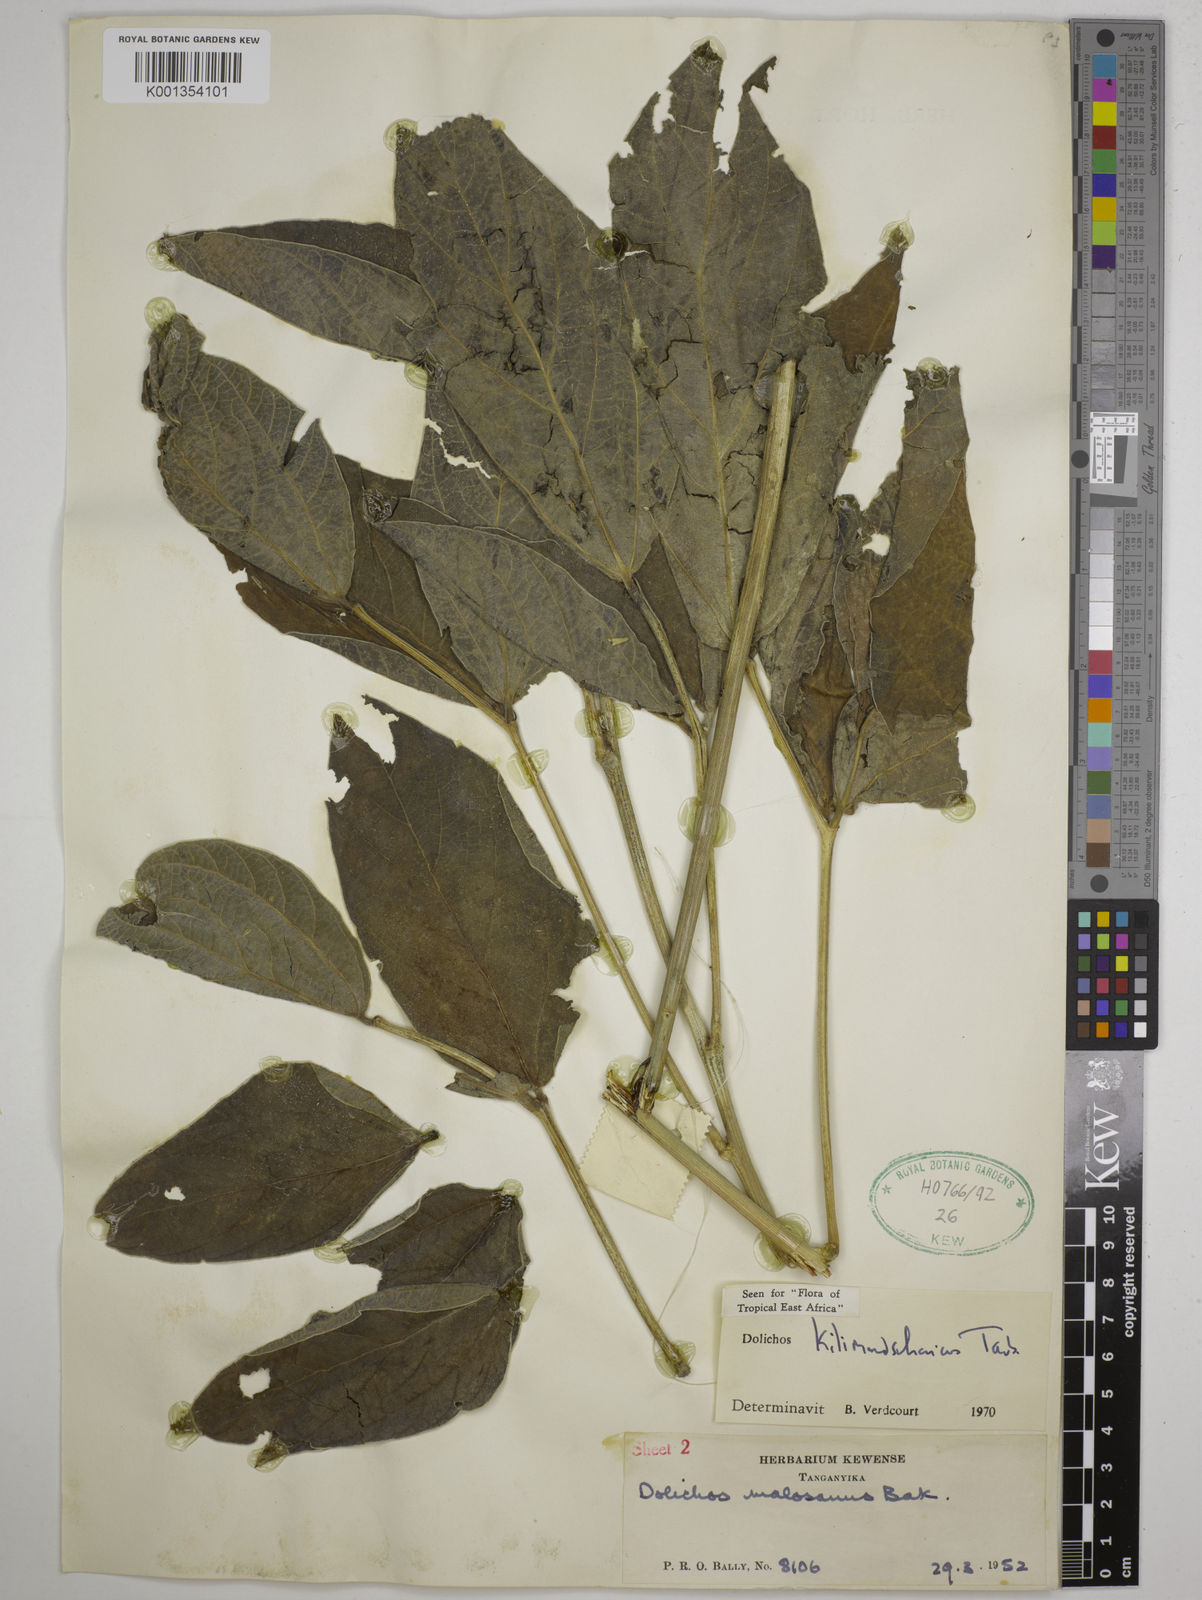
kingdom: Plantae
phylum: Tracheophyta
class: Magnoliopsida
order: Fabales
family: Fabaceae
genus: Dolichos
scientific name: Dolichos kilimandscharicus
